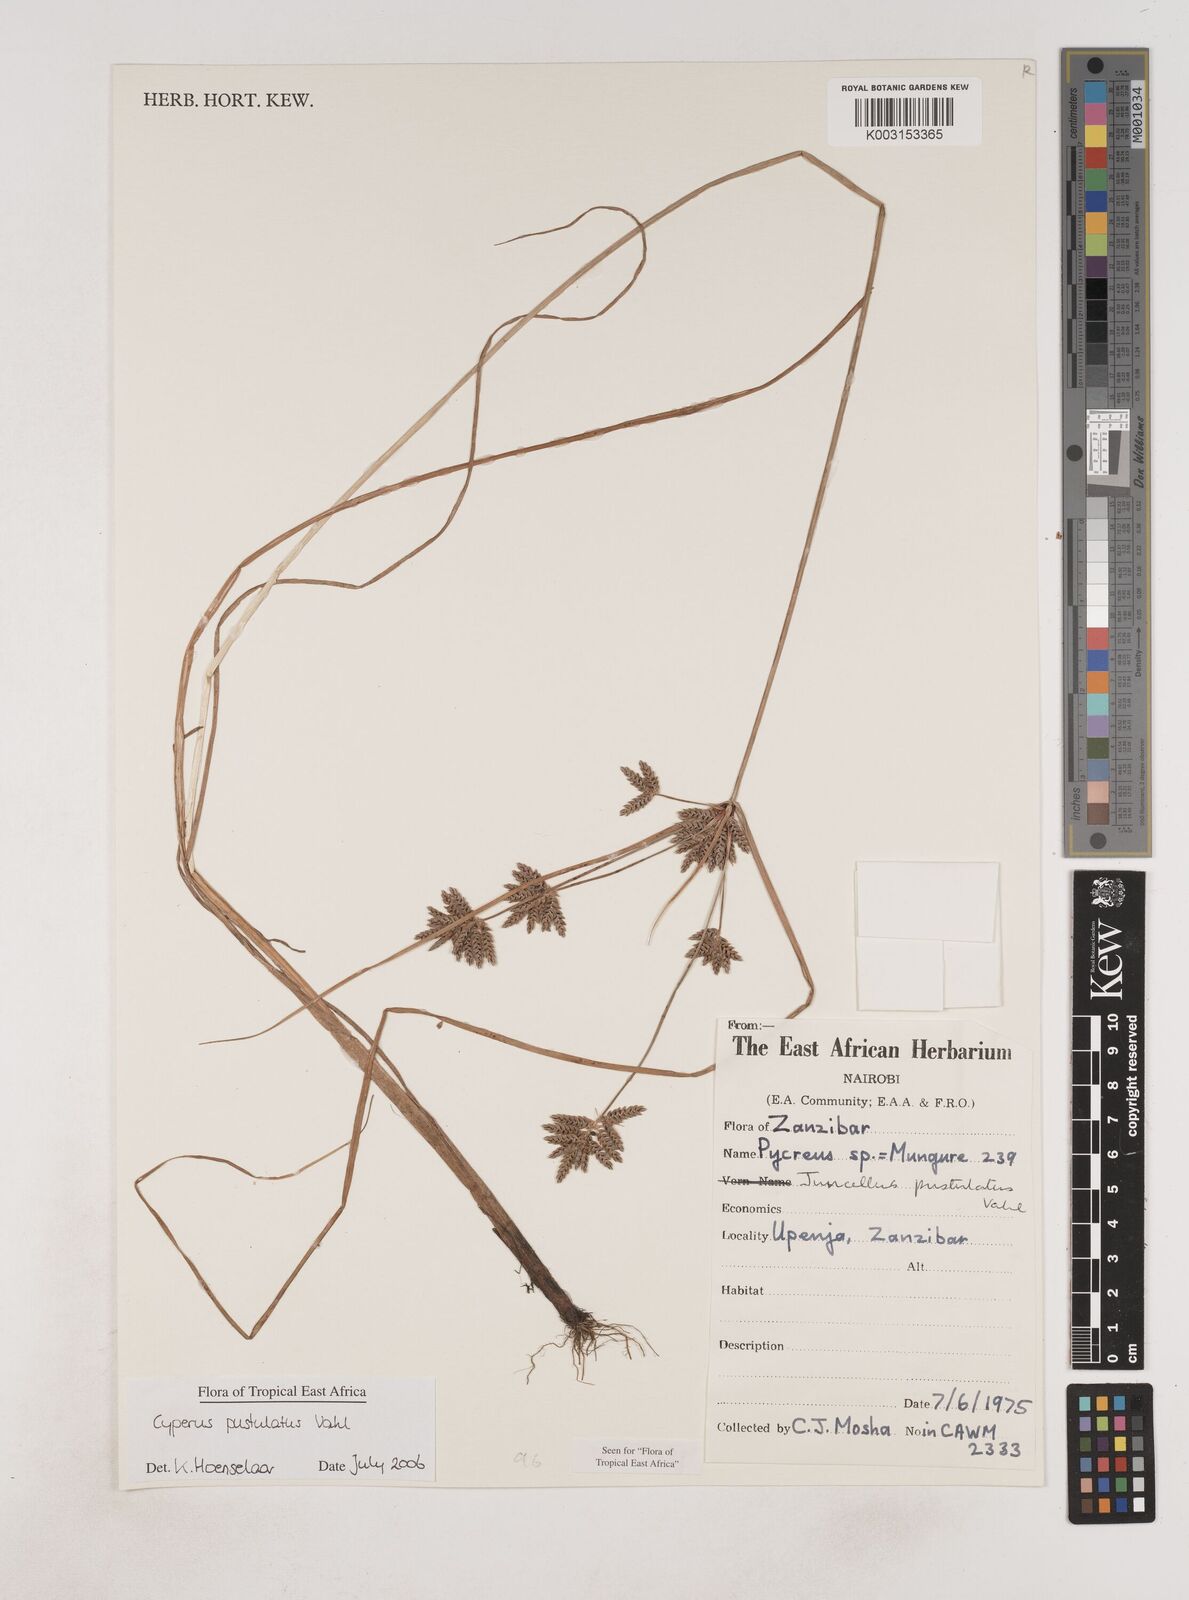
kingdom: Plantae
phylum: Tracheophyta
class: Liliopsida
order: Poales
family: Cyperaceae
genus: Cyperus
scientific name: Cyperus pustulatus
